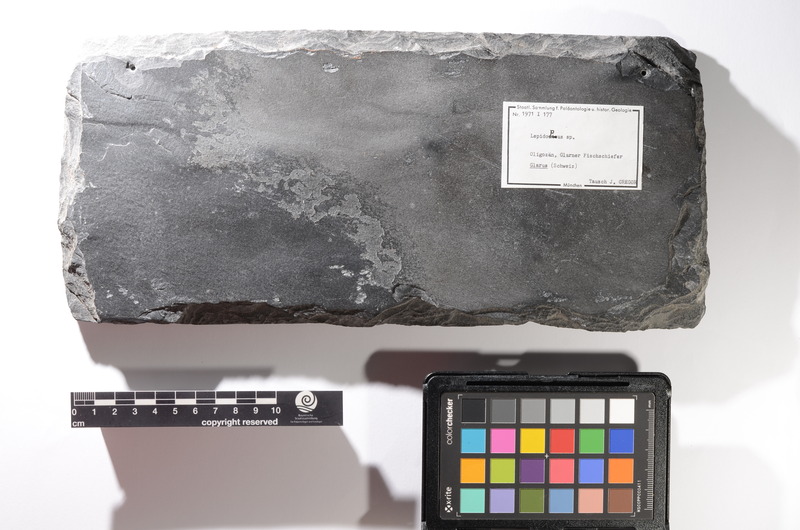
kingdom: Animalia
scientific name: Animalia
